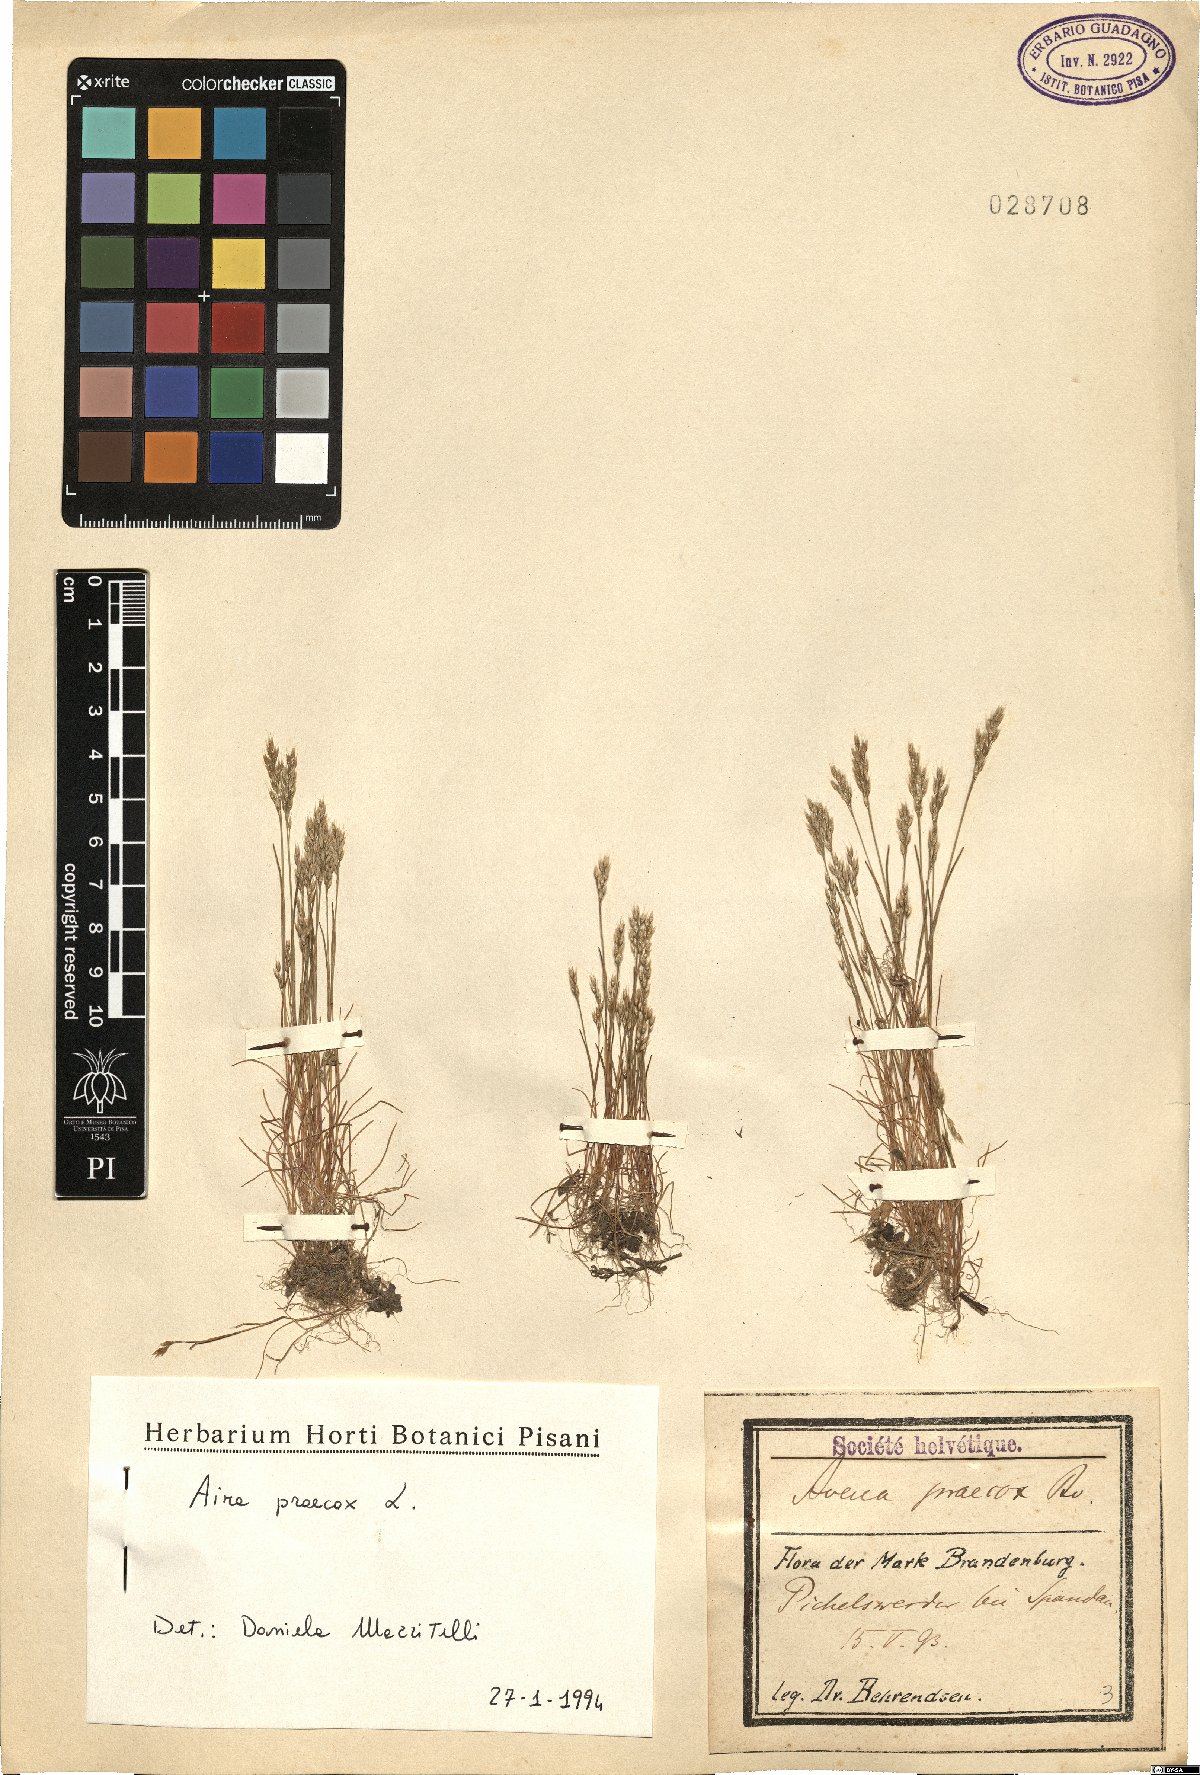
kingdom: Plantae
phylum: Tracheophyta
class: Liliopsida
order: Poales
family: Poaceae
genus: Aira
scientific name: Aira praecox
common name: Early hair-grass
